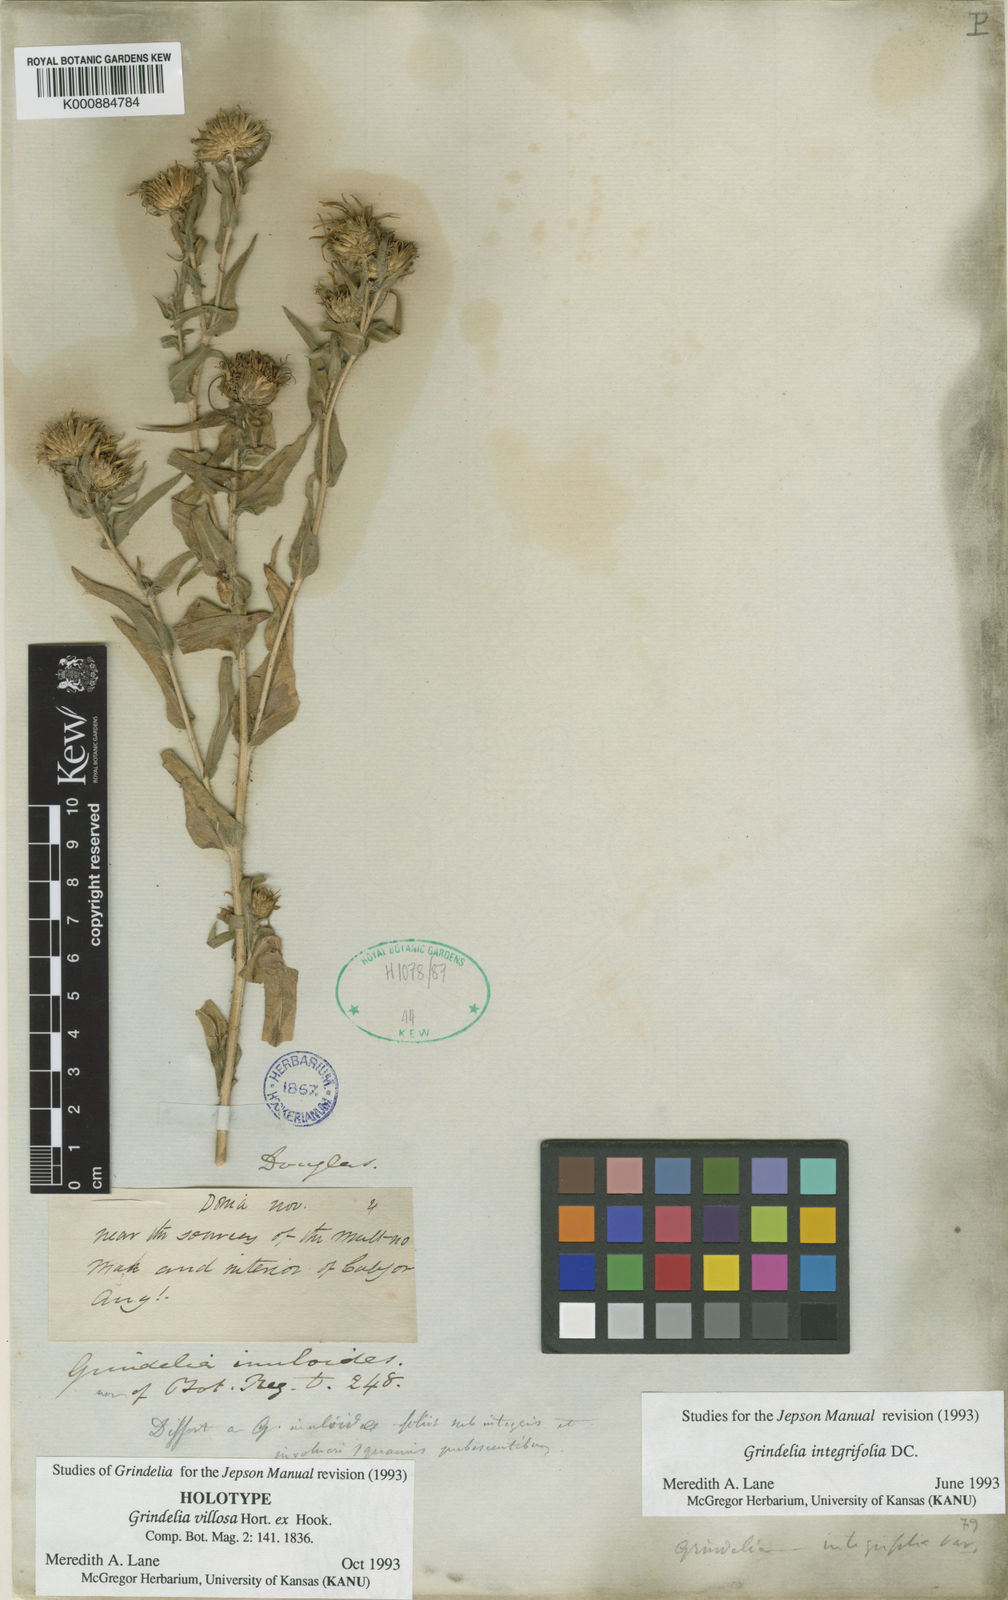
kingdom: Plantae
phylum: Tracheophyta
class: Magnoliopsida
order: Asterales
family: Asteraceae
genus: Grindelia
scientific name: Grindelia integrifolia
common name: Puget sound gumweed
